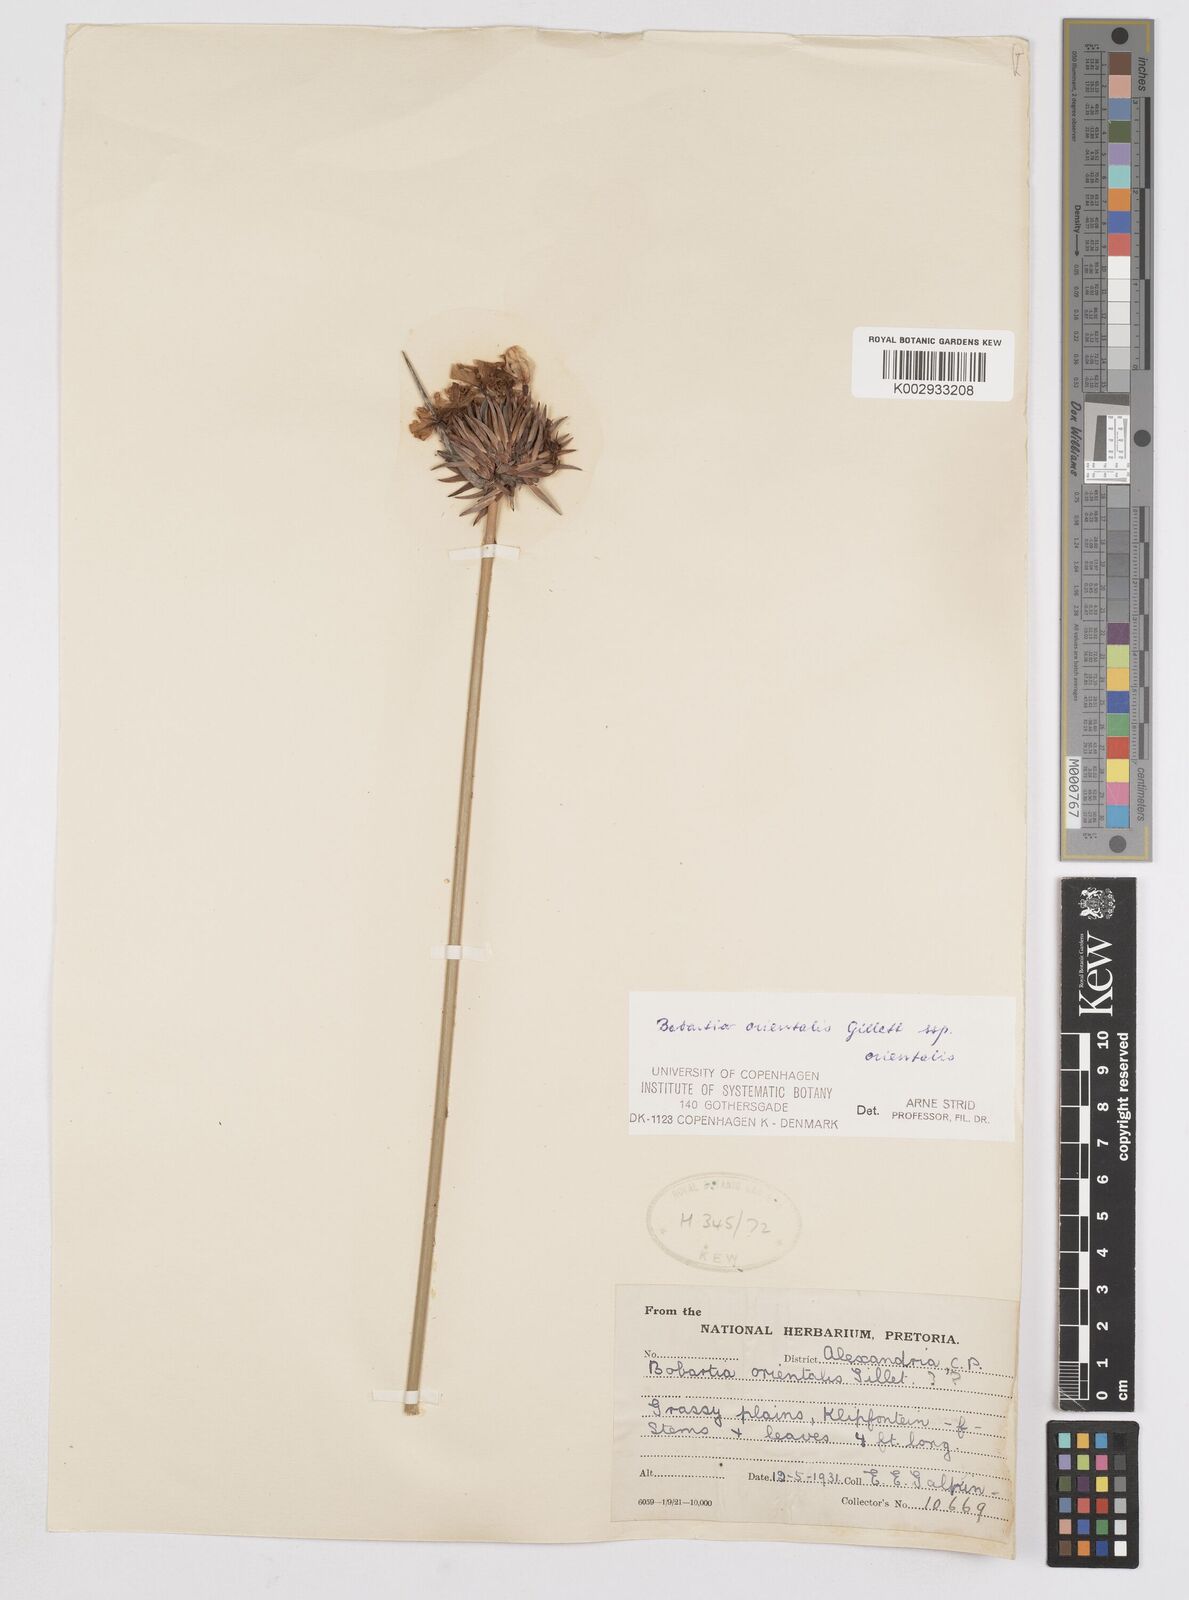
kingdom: Plantae
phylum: Tracheophyta
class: Liliopsida
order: Asparagales
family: Iridaceae
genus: Bobartia
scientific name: Bobartia orientalis
